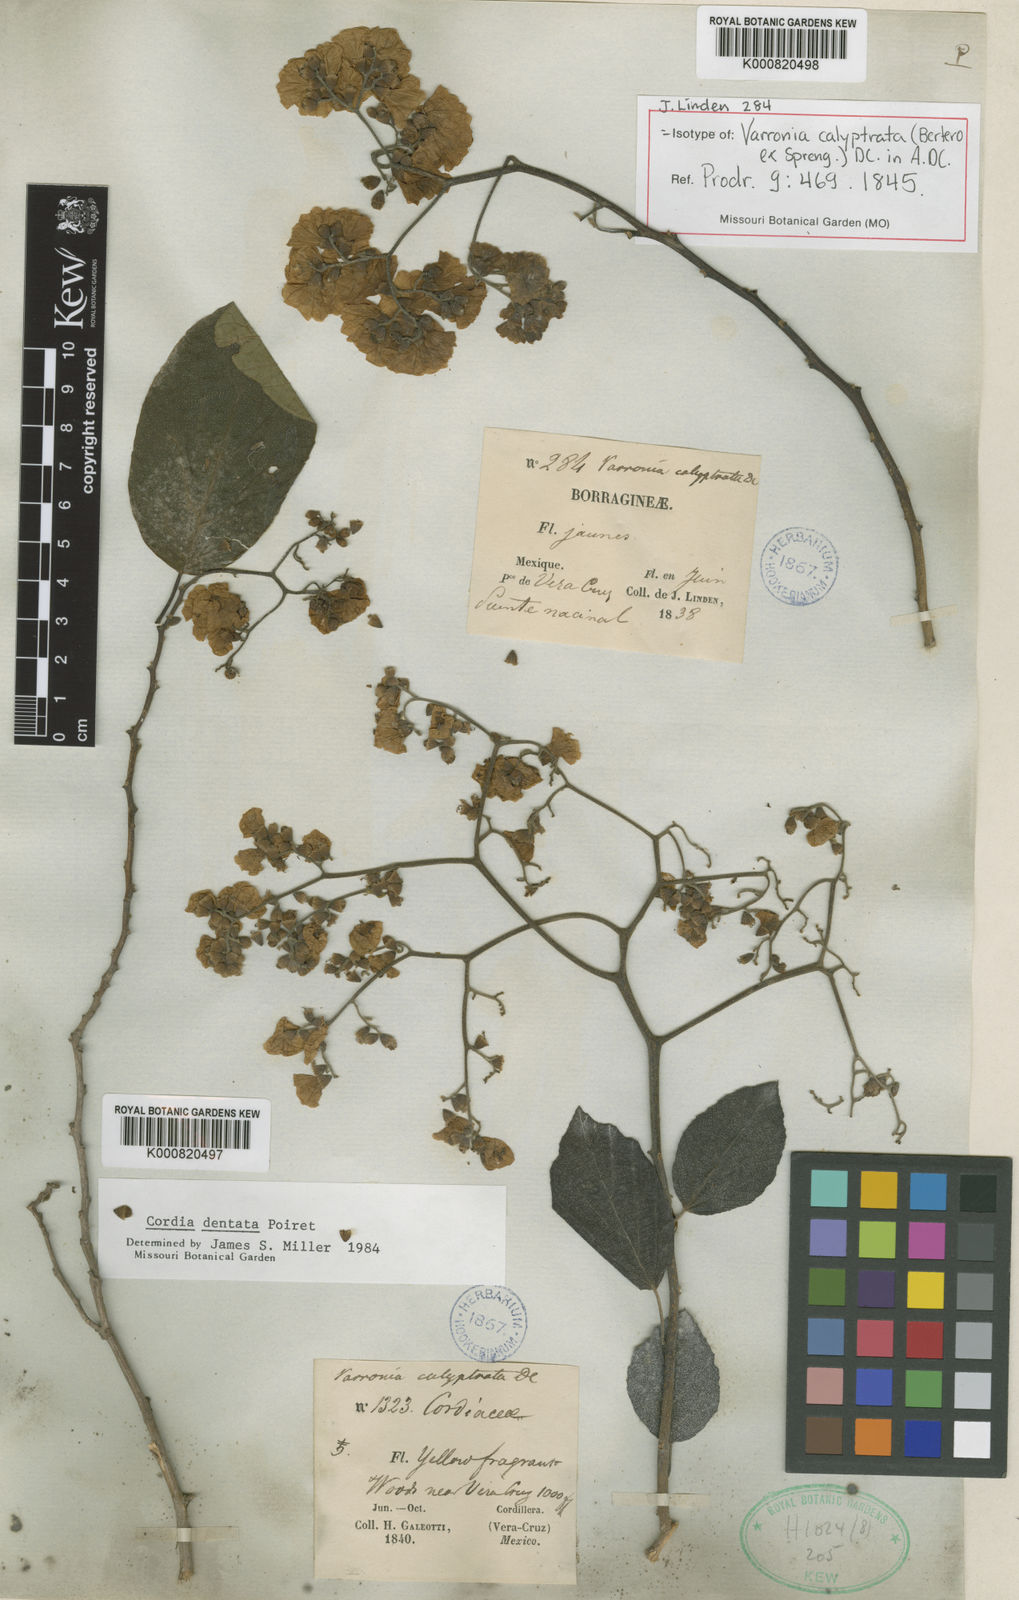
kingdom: Plantae
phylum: Tracheophyta
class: Magnoliopsida
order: Boraginales
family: Cordiaceae
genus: Cordia
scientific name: Cordia dentata
